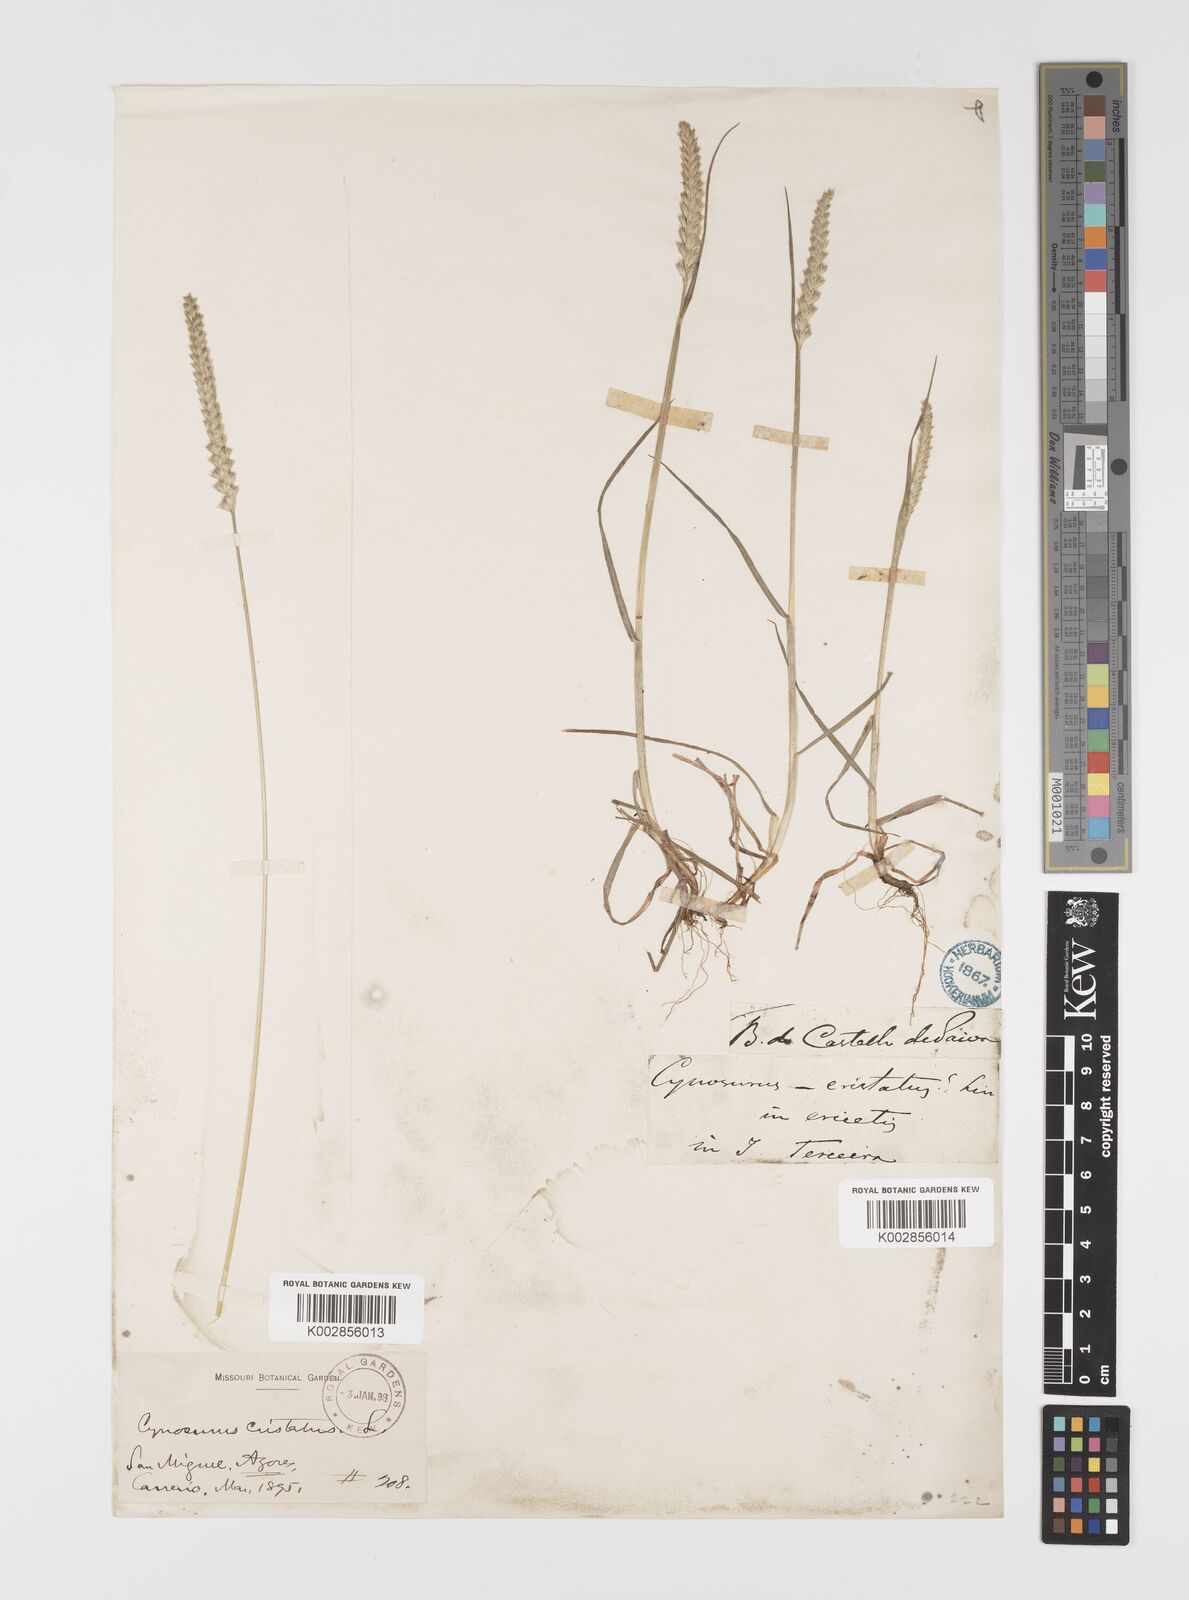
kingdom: Plantae
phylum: Tracheophyta
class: Liliopsida
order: Poales
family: Poaceae
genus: Cynosurus
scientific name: Cynosurus cristatus
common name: Crested dog's-tail
